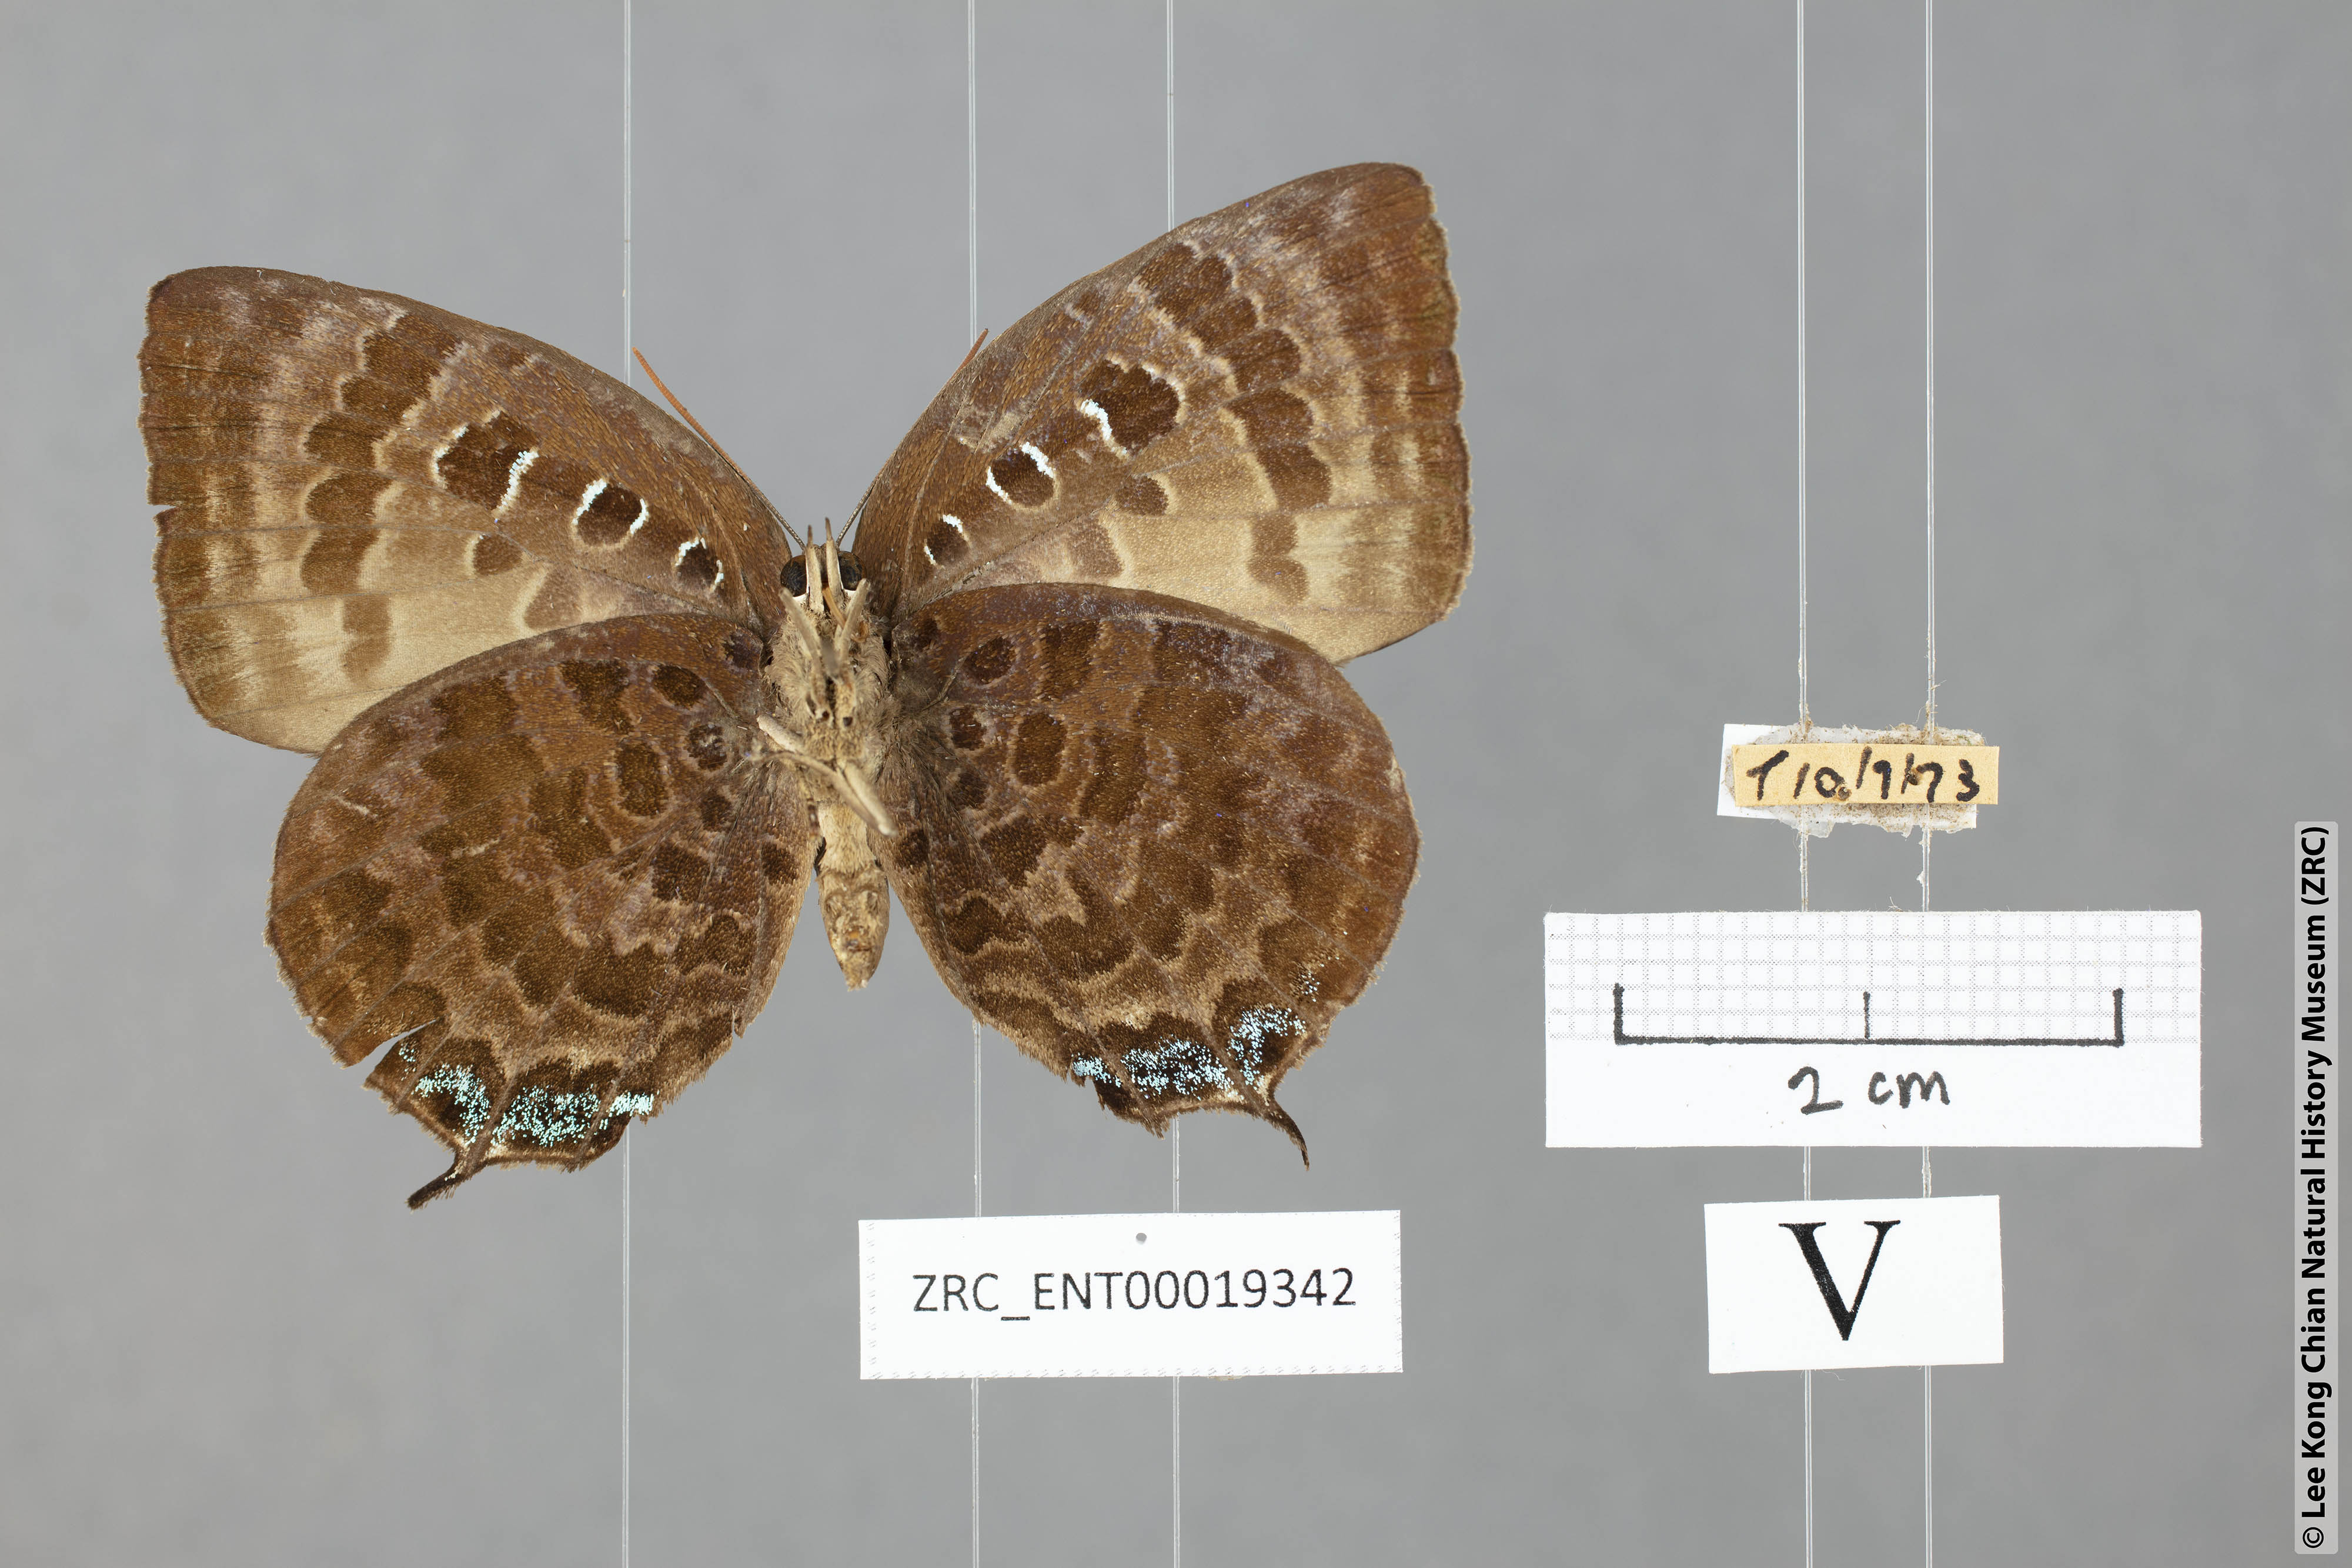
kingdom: Animalia
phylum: Arthropoda
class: Insecta
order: Lepidoptera
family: Lycaenidae
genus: Arhopala
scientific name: Arhopala centaurus
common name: Dull oak-blue
